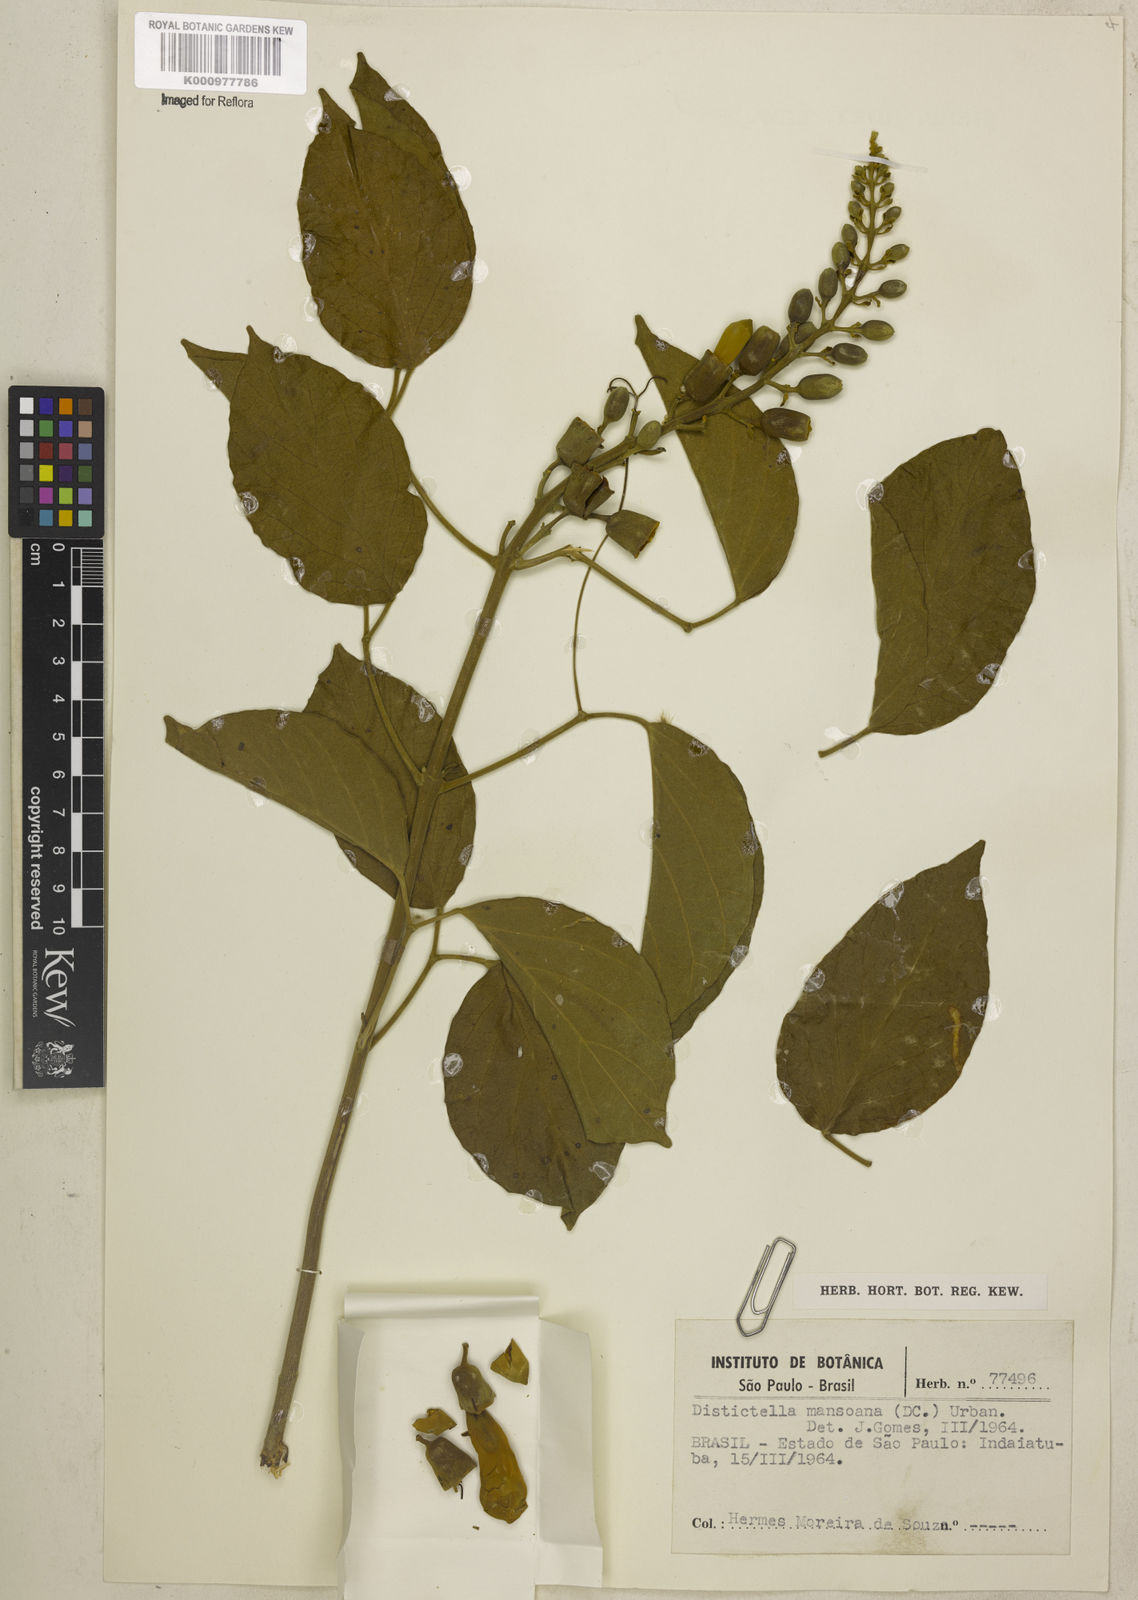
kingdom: Plantae
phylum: Tracheophyta
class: Magnoliopsida
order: Lamiales
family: Bignoniaceae
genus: Amphilophium
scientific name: Amphilophium mansoanum
